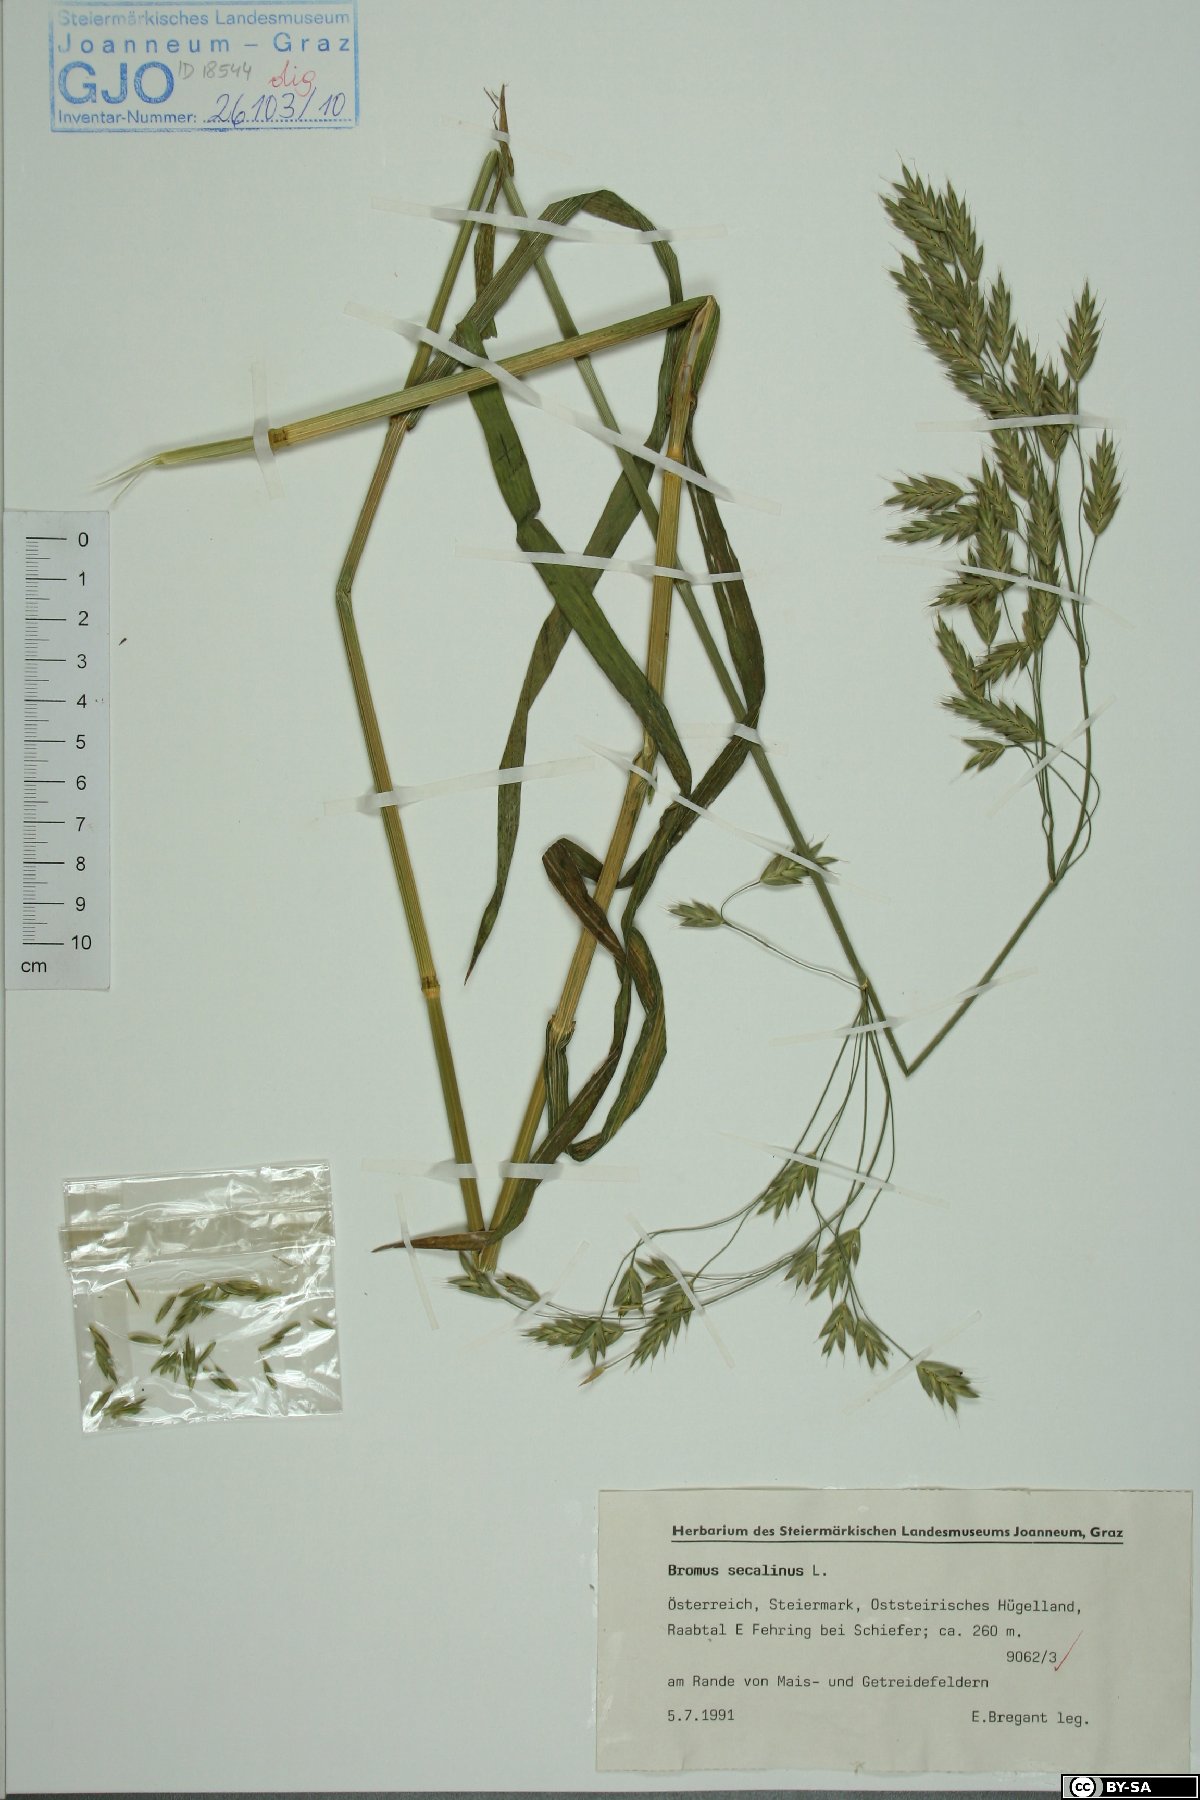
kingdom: Plantae
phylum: Tracheophyta
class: Liliopsida
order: Poales
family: Poaceae
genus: Bromus
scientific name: Bromus secalinus
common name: Rye brome
